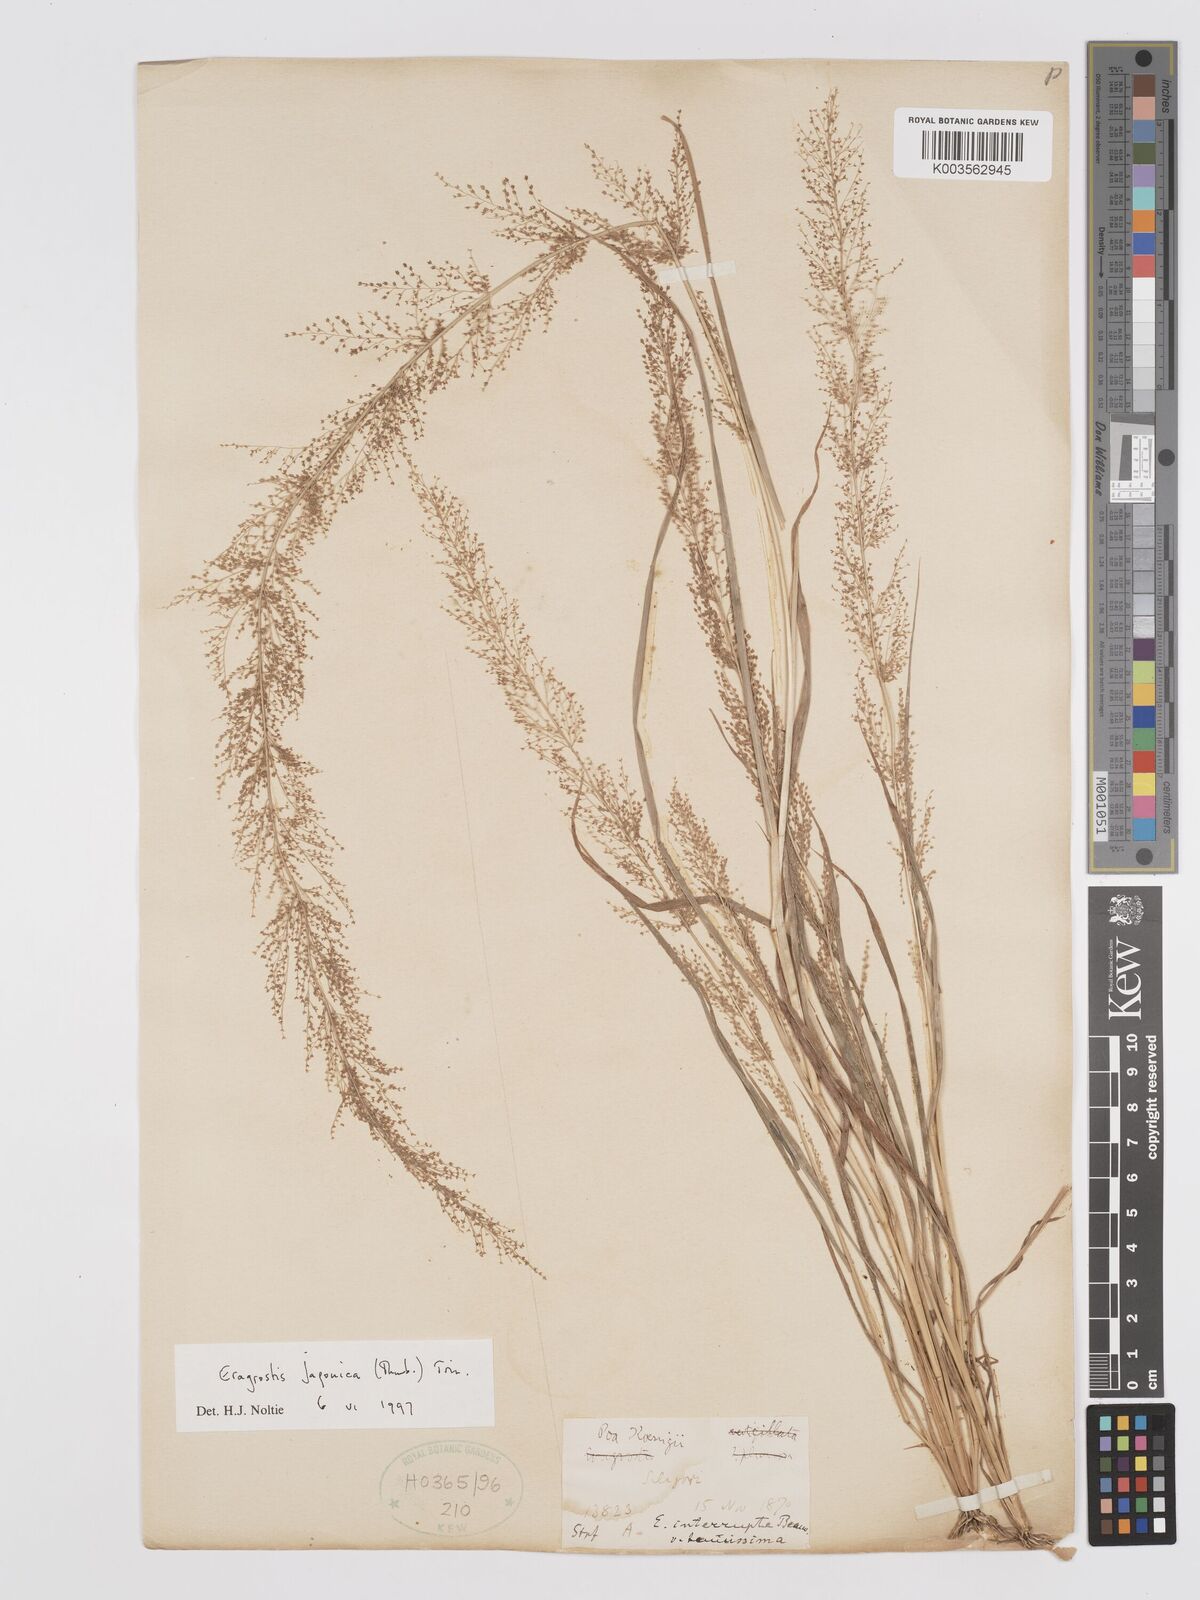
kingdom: Plantae
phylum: Tracheophyta
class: Liliopsida
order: Poales
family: Poaceae
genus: Eragrostis
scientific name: Eragrostis japonica
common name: Pond lovegrass
